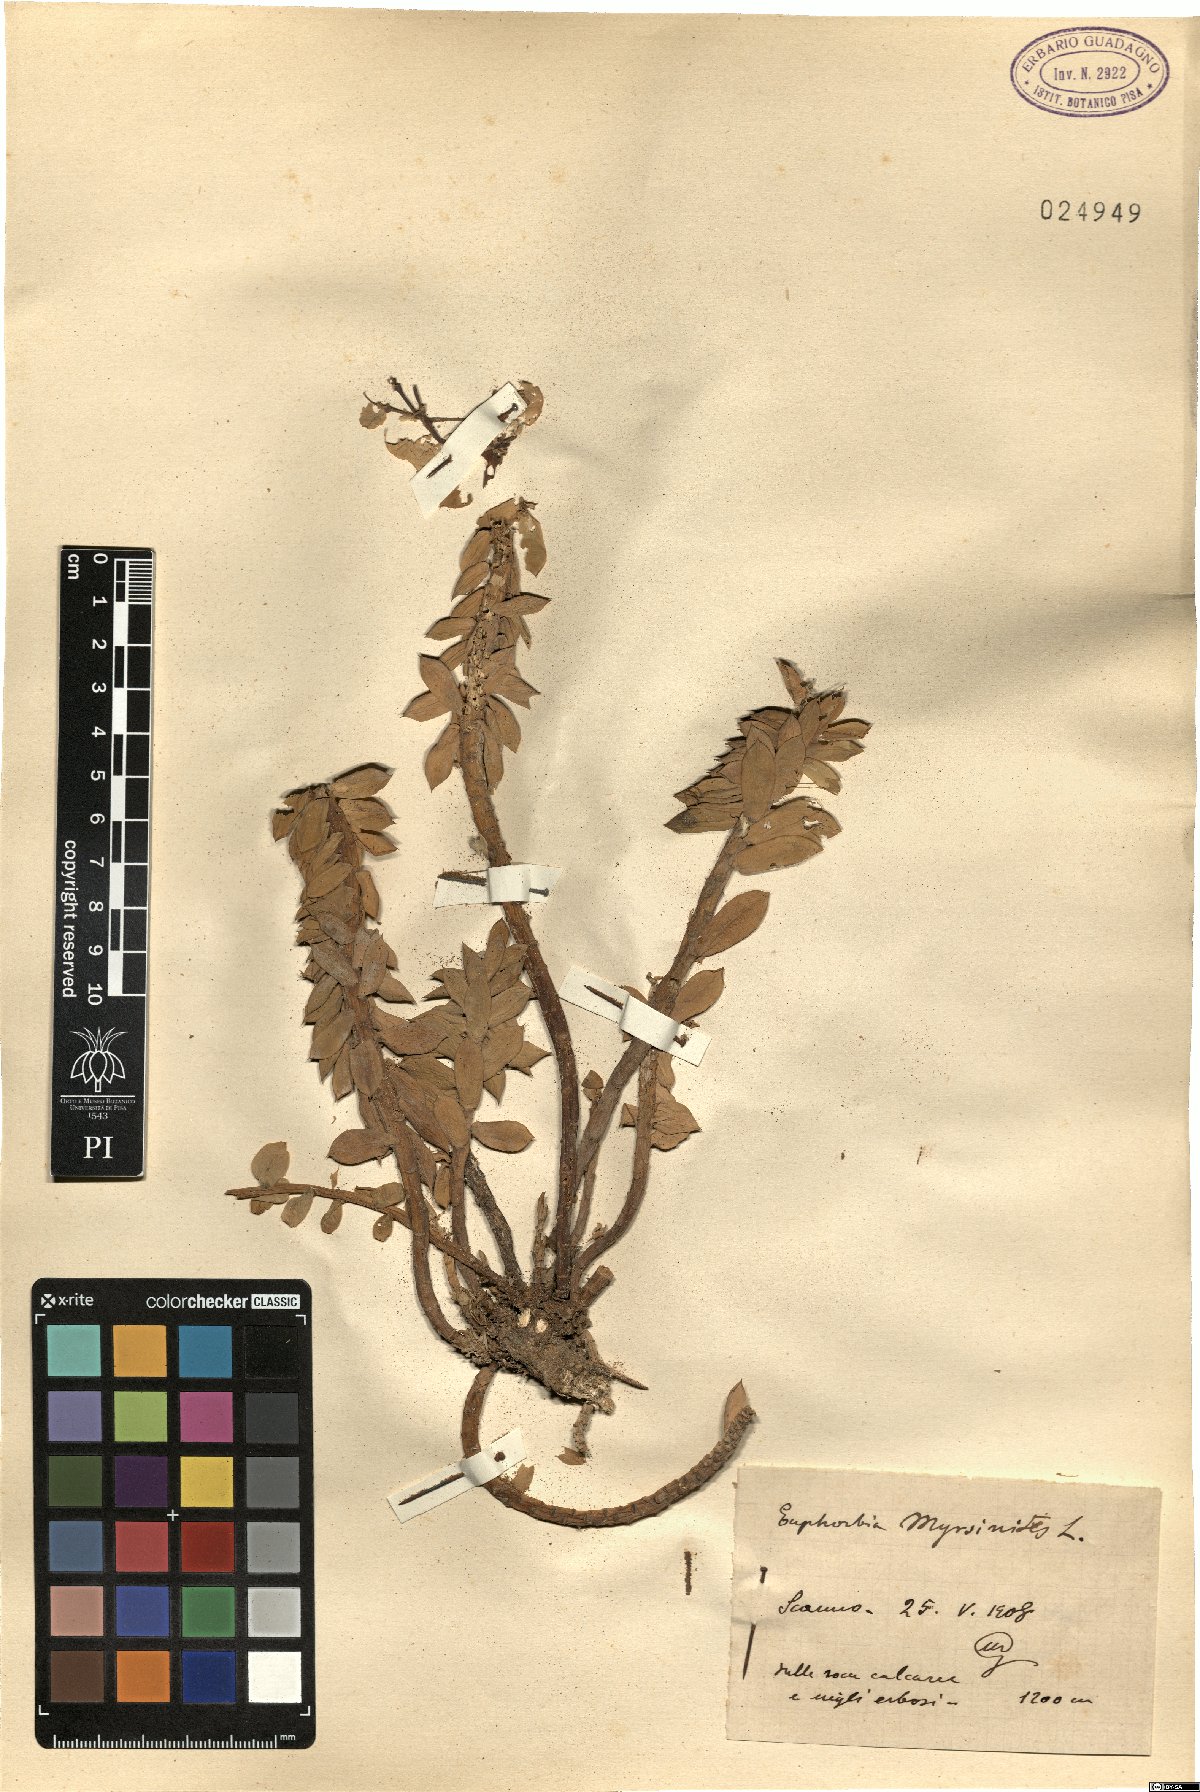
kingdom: Plantae
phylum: Tracheophyta
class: Magnoliopsida
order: Malpighiales
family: Euphorbiaceae
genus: Euphorbia
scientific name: Euphorbia myrsinites
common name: Myrtle spurge
